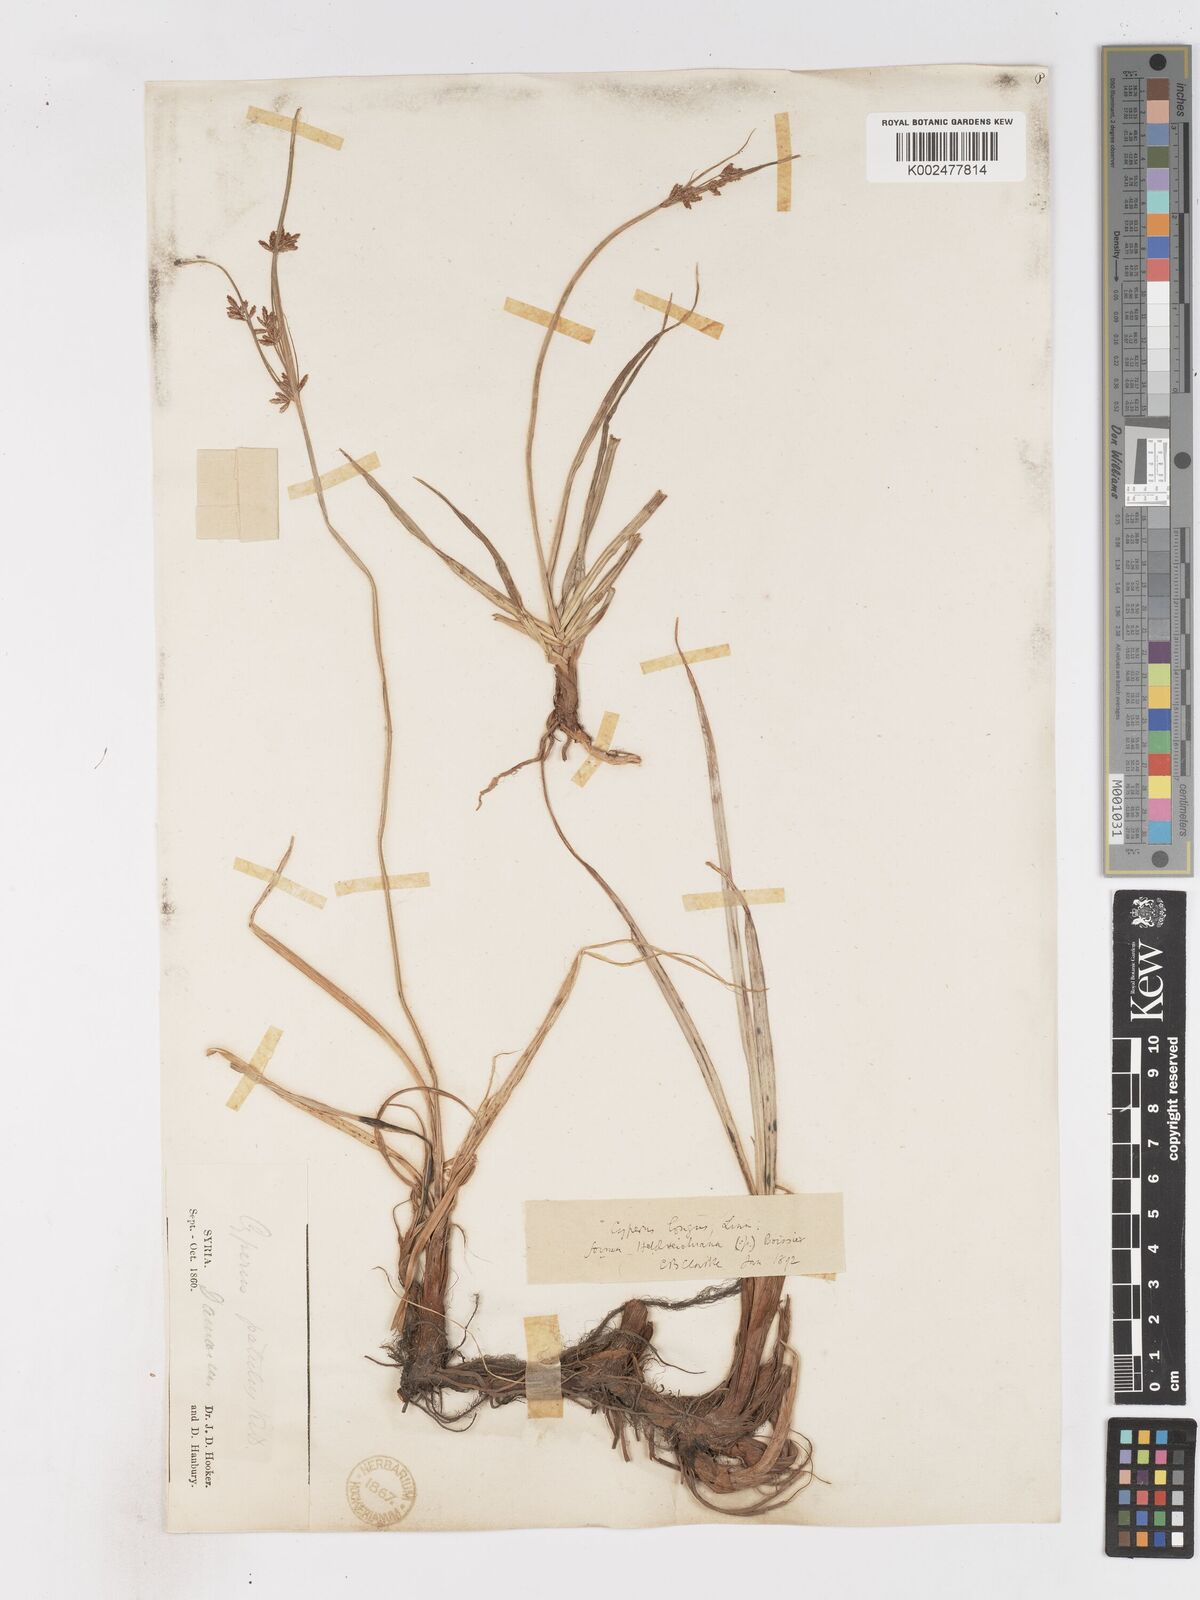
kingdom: Plantae
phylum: Tracheophyta
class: Liliopsida
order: Poales
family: Cyperaceae
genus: Cyperus
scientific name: Cyperus longus
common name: Galingale
